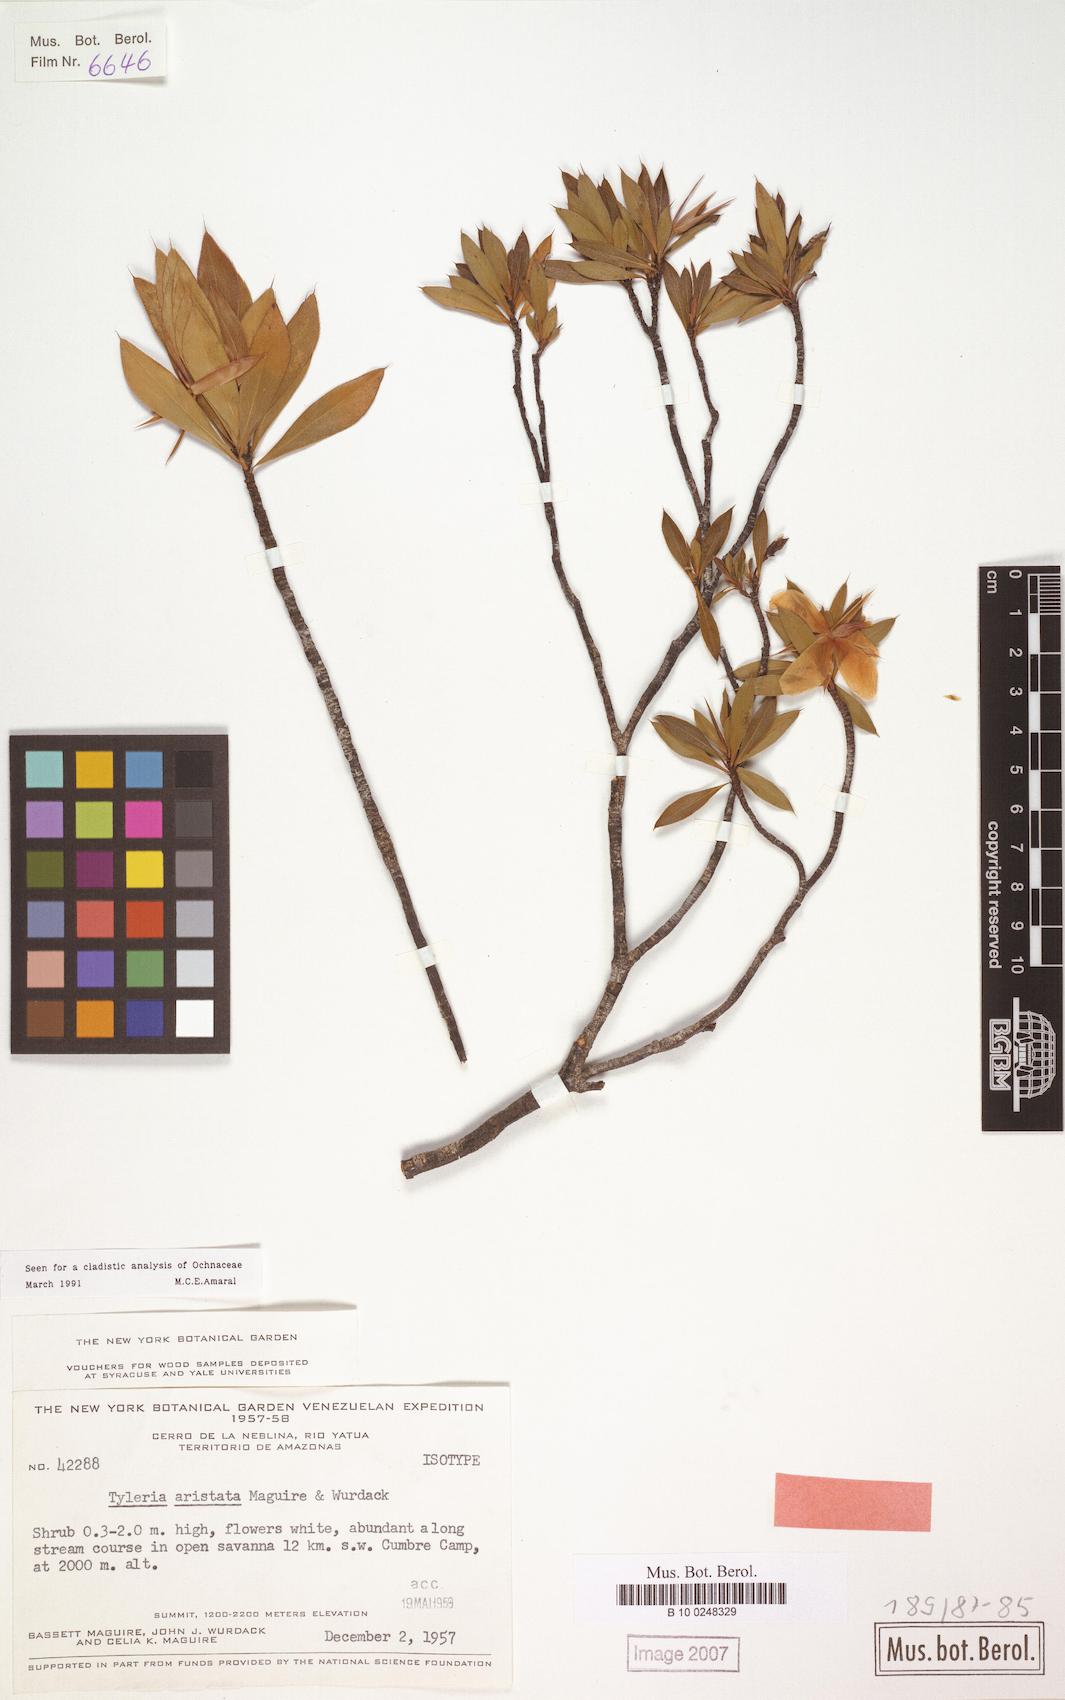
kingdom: Plantae
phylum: Tracheophyta
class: Magnoliopsida
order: Malpighiales
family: Ochnaceae
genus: Tyleria
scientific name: Tyleria aristata
